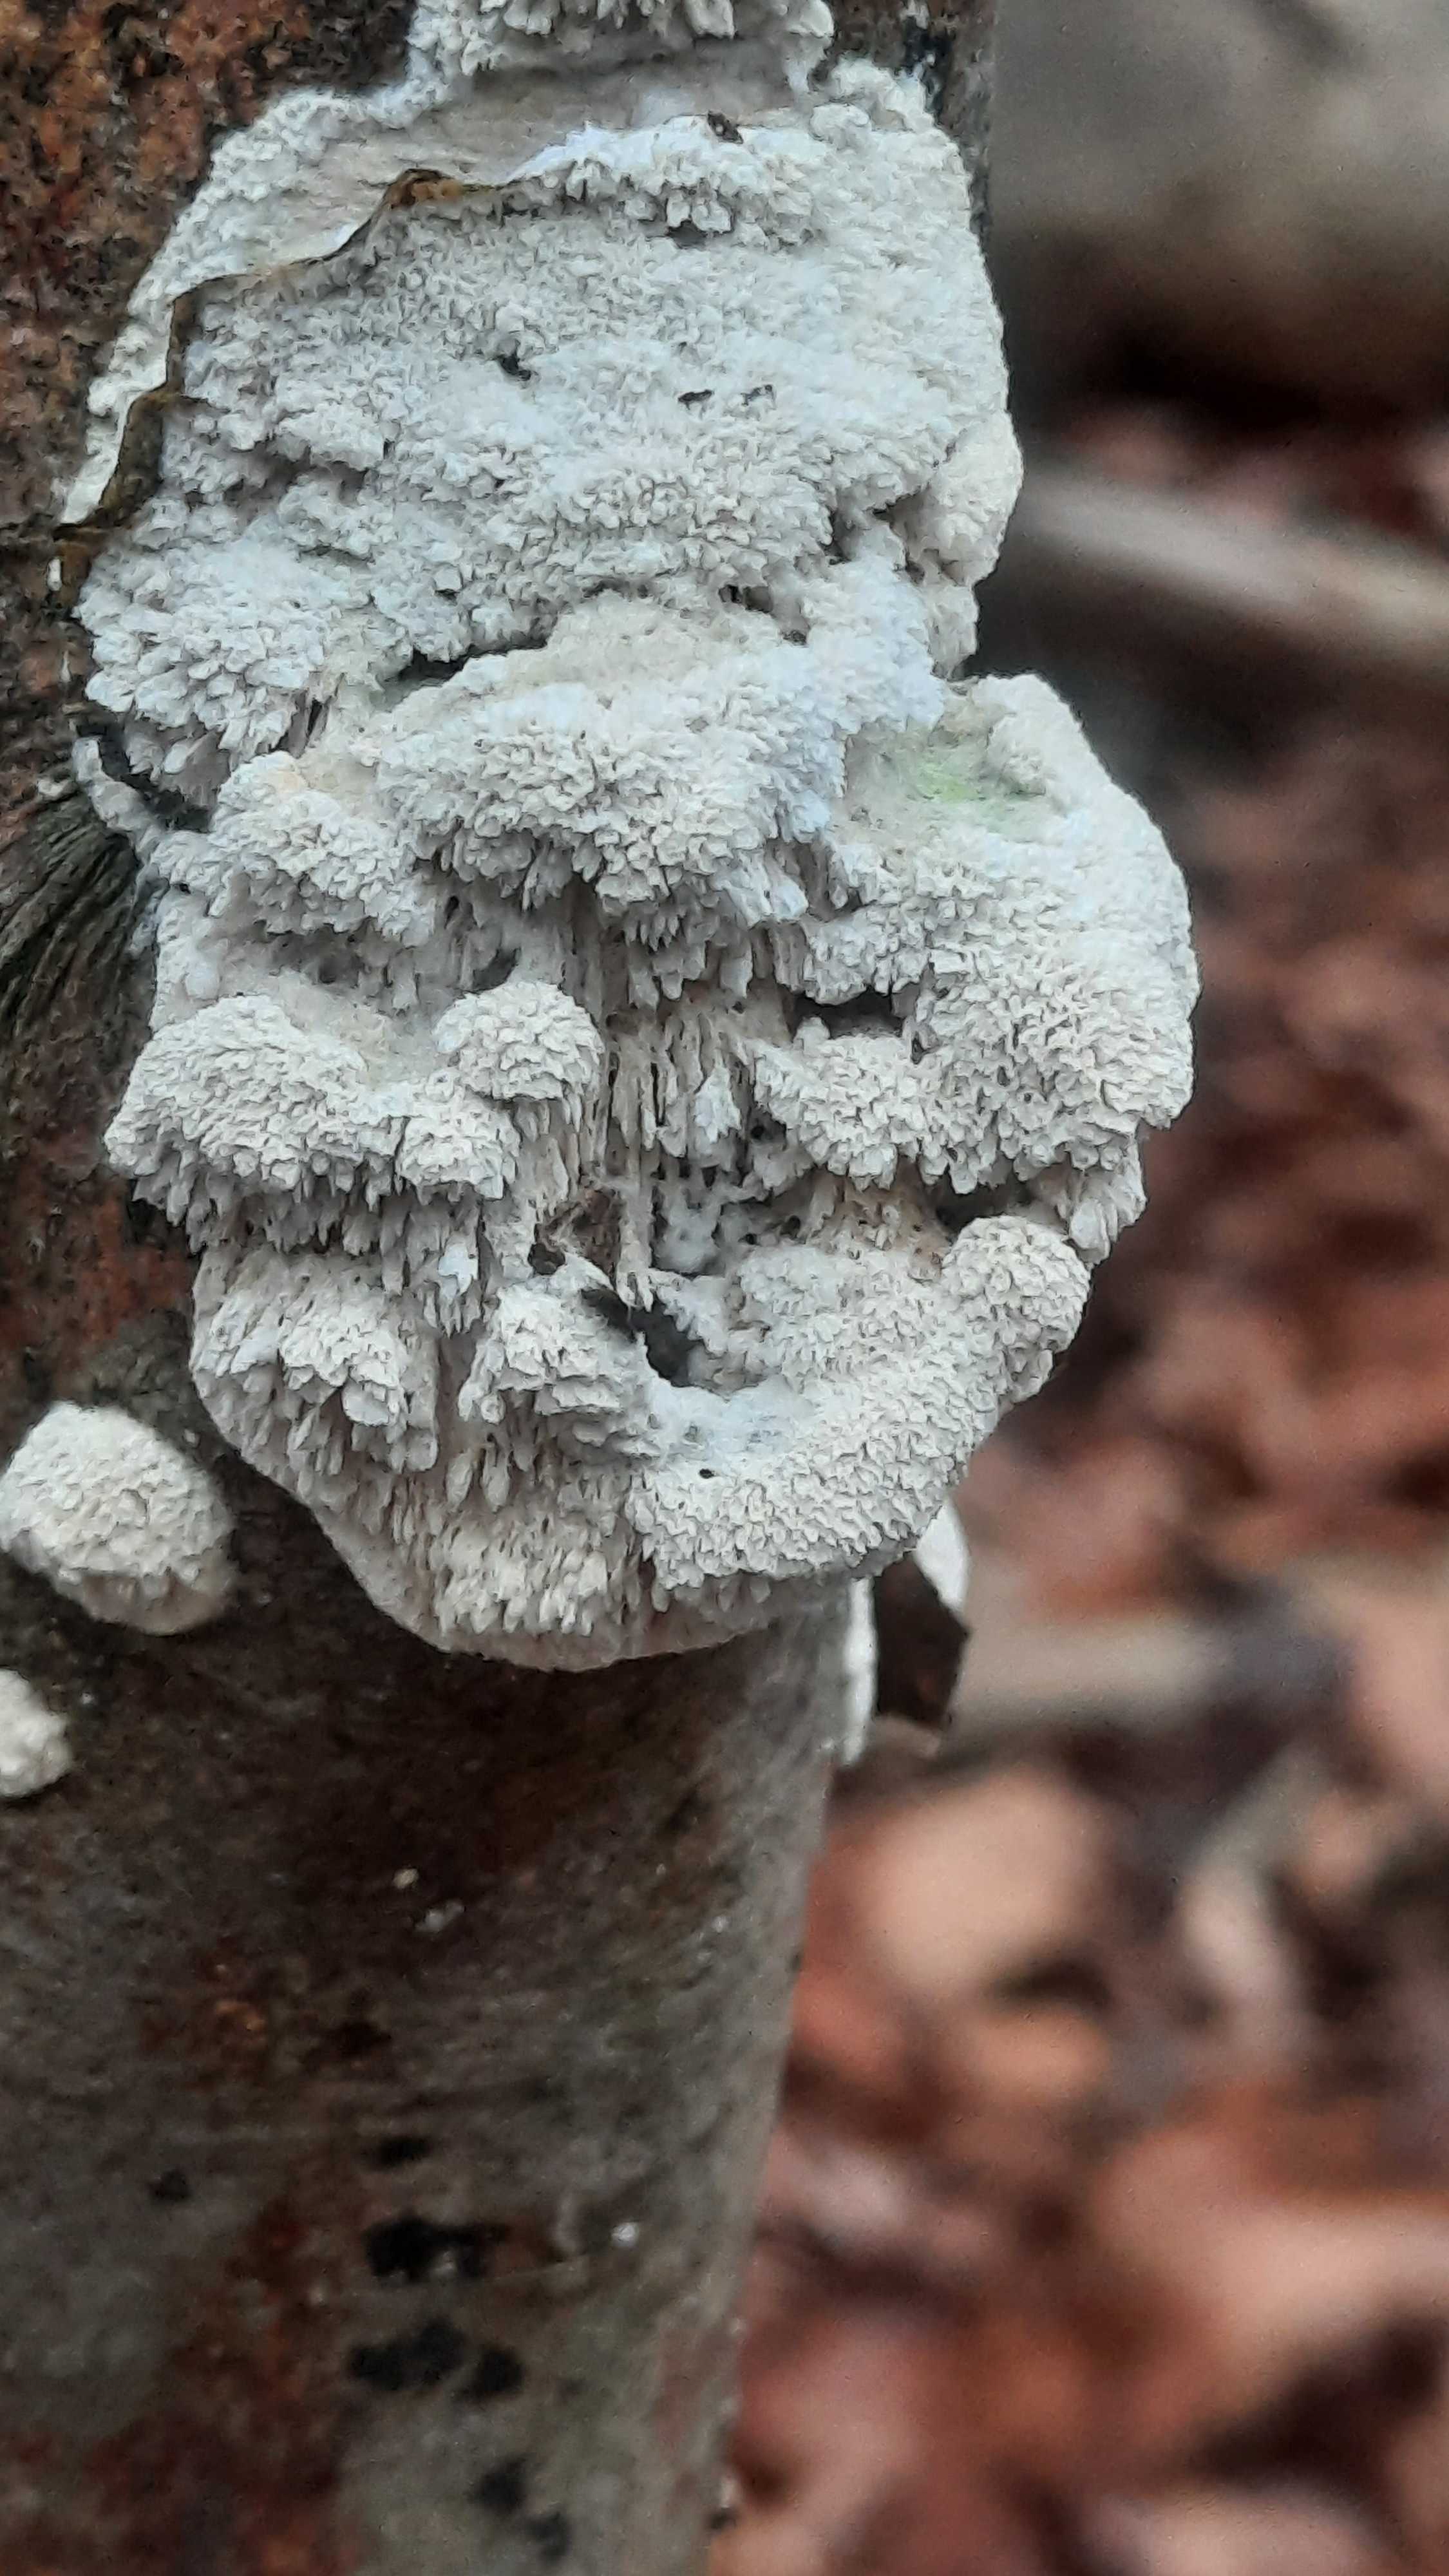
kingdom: Fungi
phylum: Basidiomycota
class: Agaricomycetes
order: Hymenochaetales
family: Schizoporaceae
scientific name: Schizoporaceae
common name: tandsvampfamilien
